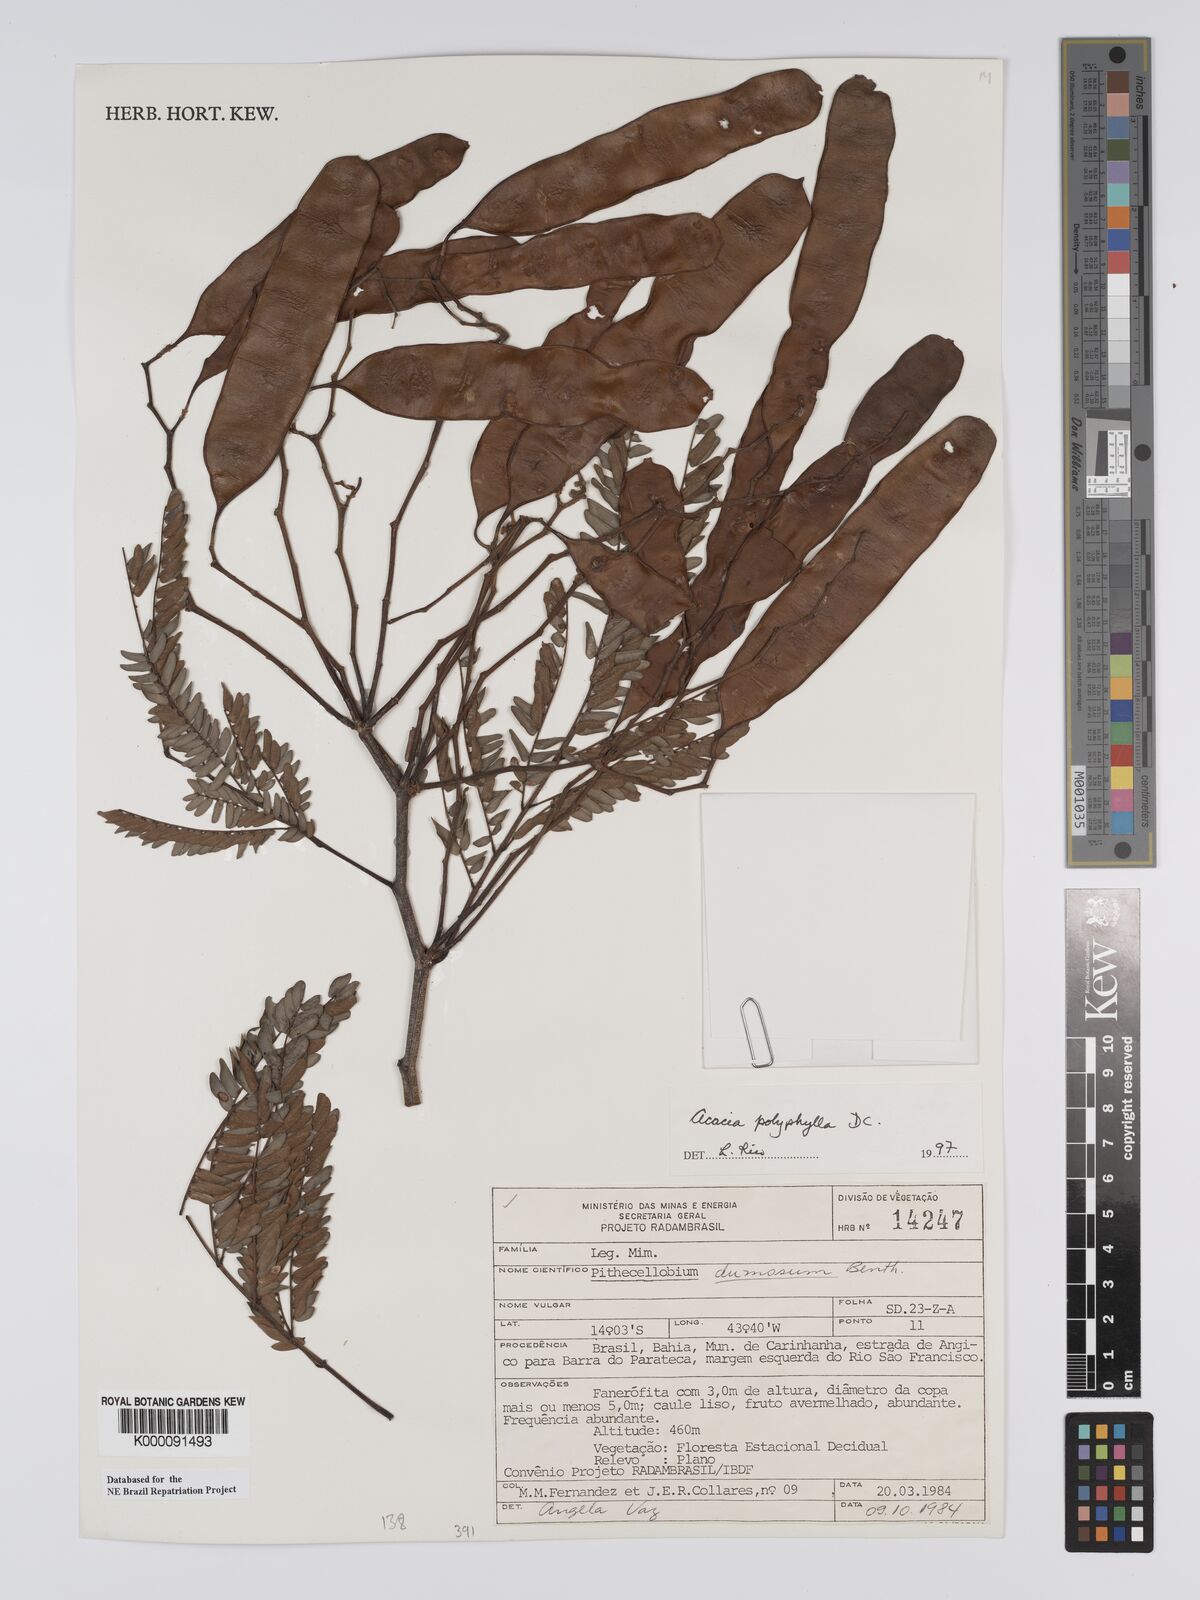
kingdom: Plantae
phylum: Tracheophyta
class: Magnoliopsida
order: Fabales
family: Fabaceae
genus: Senegalia
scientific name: Senegalia polyphylla
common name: White-tamarind
